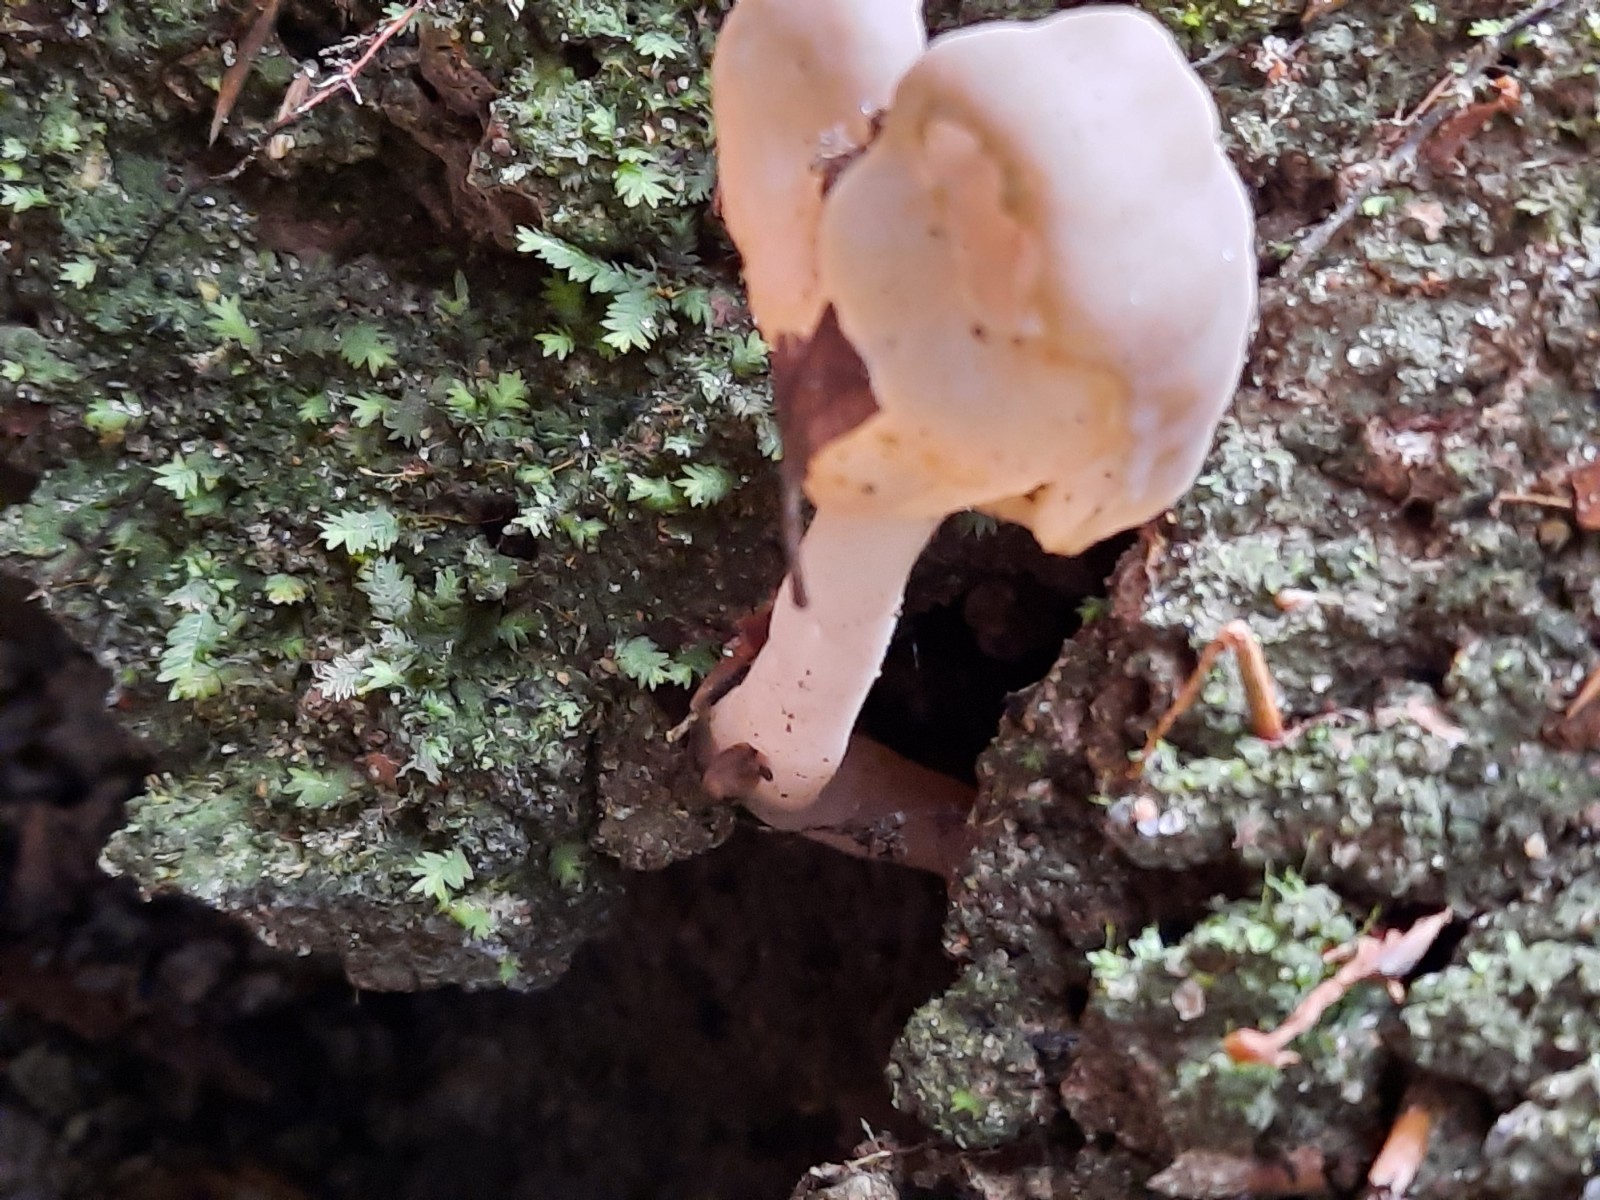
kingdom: Fungi
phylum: Ascomycota
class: Pezizomycetes
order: Pezizales
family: Helvellaceae
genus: Helvella
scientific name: Helvella elastica
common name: elastik-foldhat
